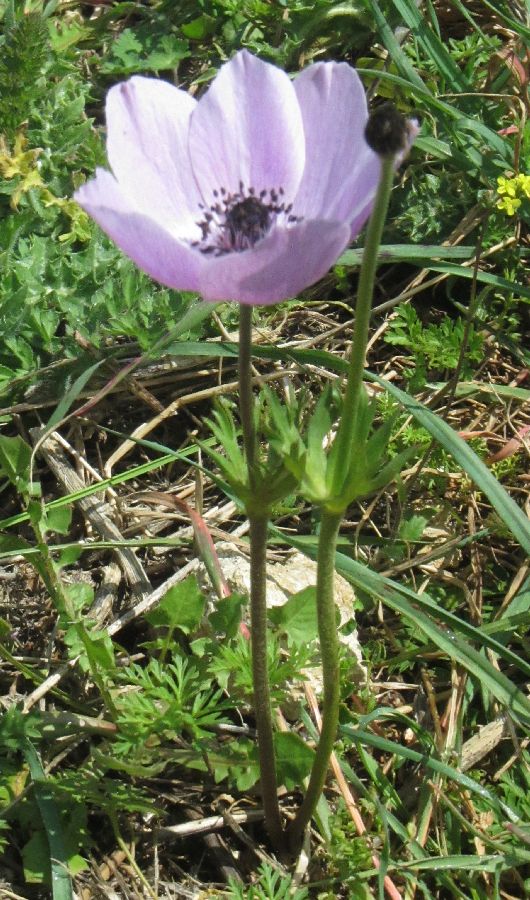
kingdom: Plantae
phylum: Tracheophyta
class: Magnoliopsida
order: Ranunculales
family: Ranunculaceae
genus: Anemone
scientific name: Anemone coronaria
